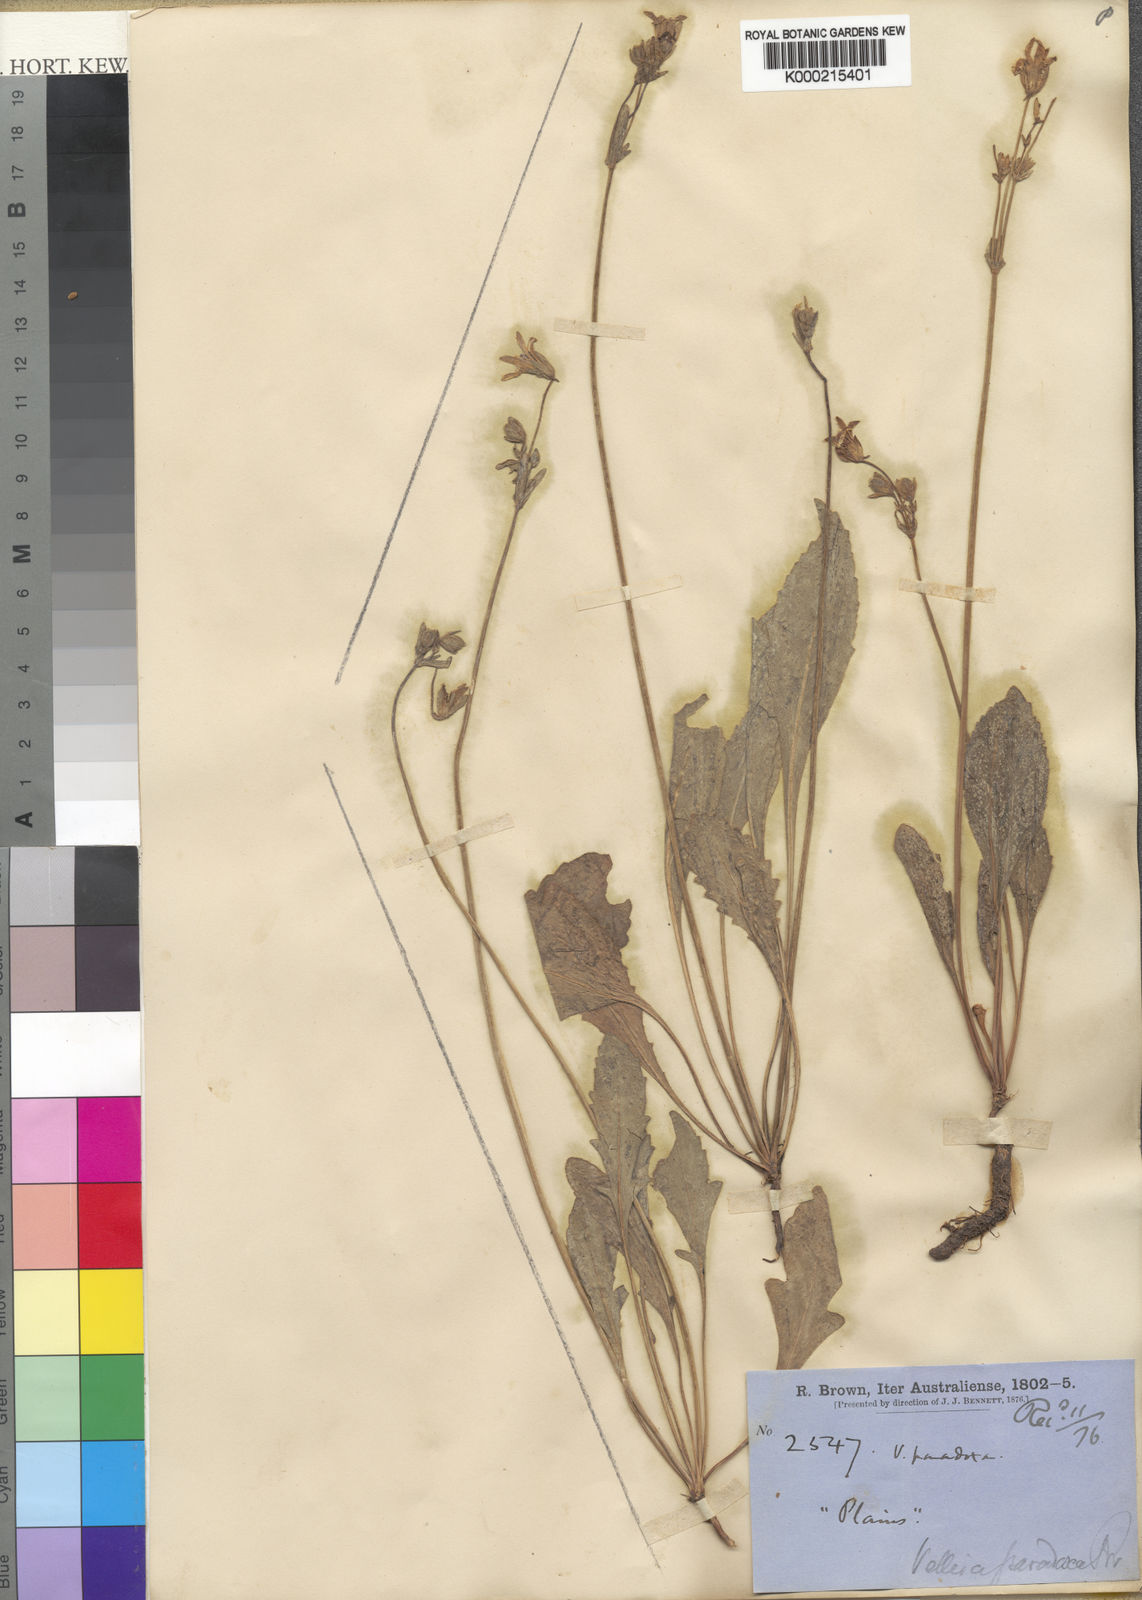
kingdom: Plantae
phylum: Tracheophyta
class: Magnoliopsida
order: Asterales
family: Goodeniaceae
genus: Goodenia
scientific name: Goodenia paradoxa
